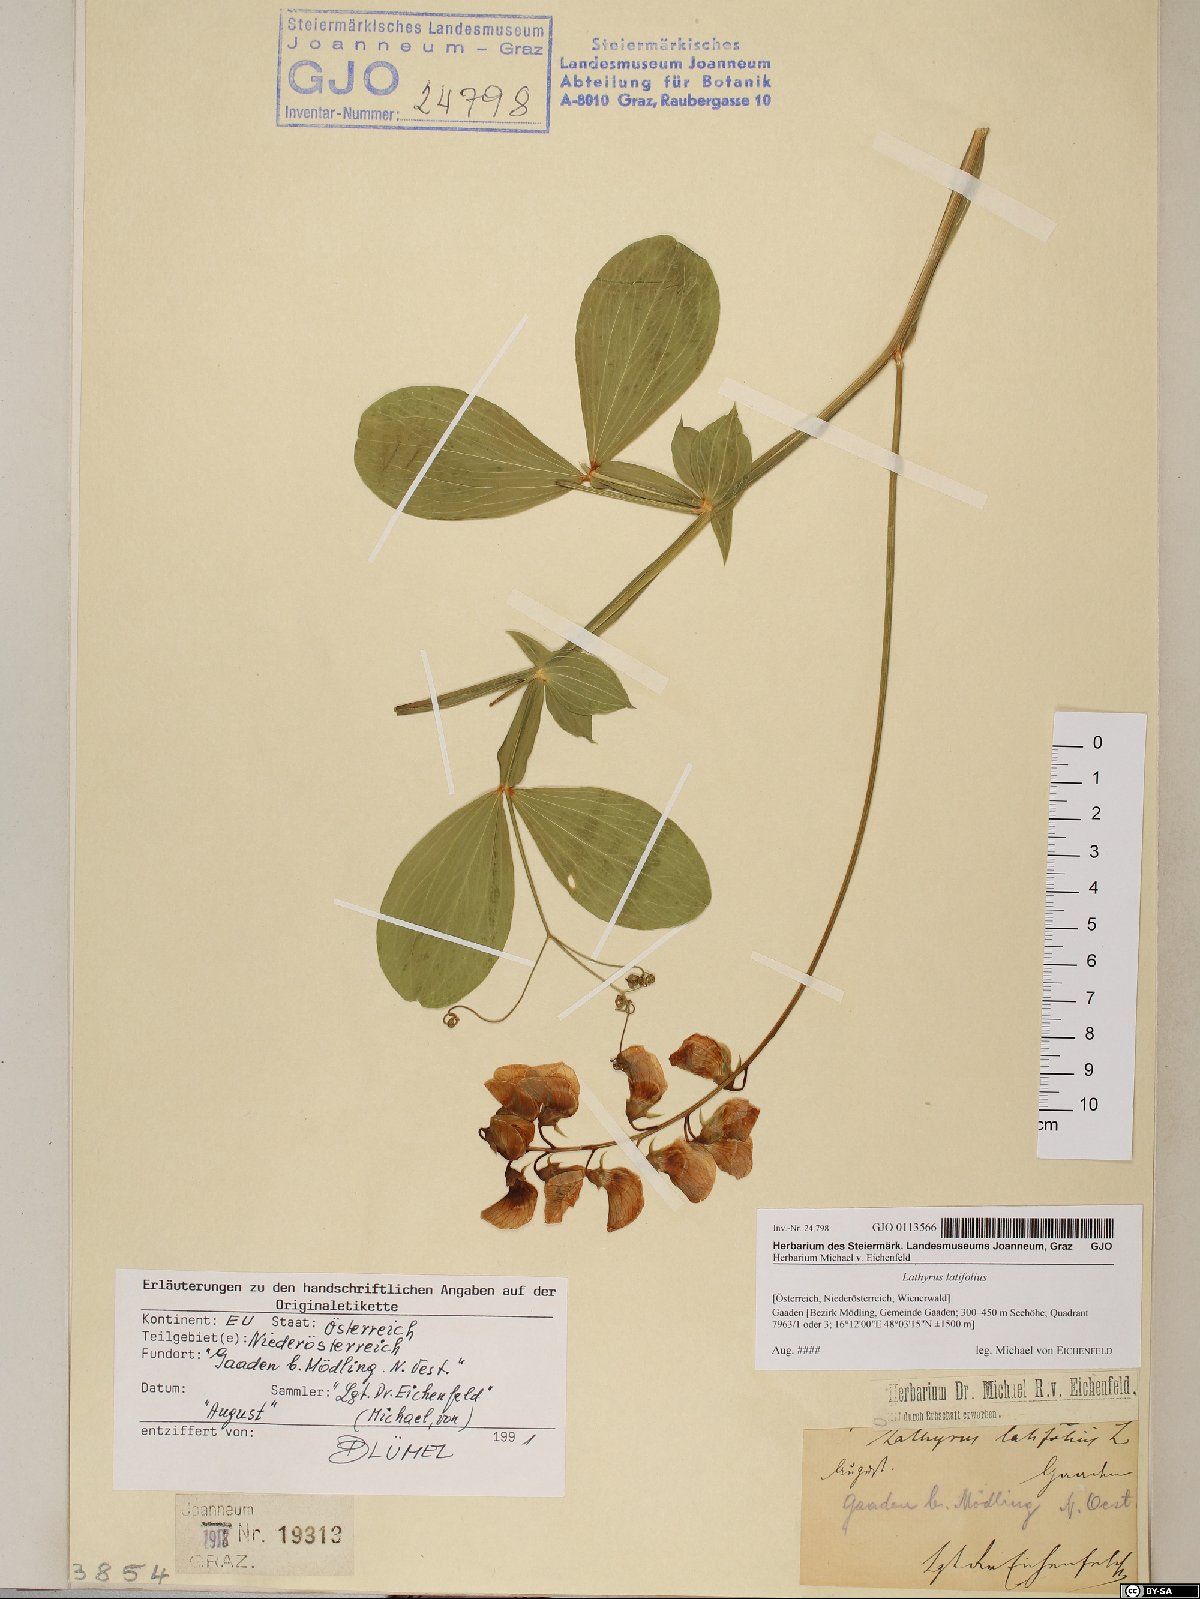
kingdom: Plantae
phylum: Tracheophyta
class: Magnoliopsida
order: Fabales
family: Fabaceae
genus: Lathyrus
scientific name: Lathyrus latifolius
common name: Perennial pea
